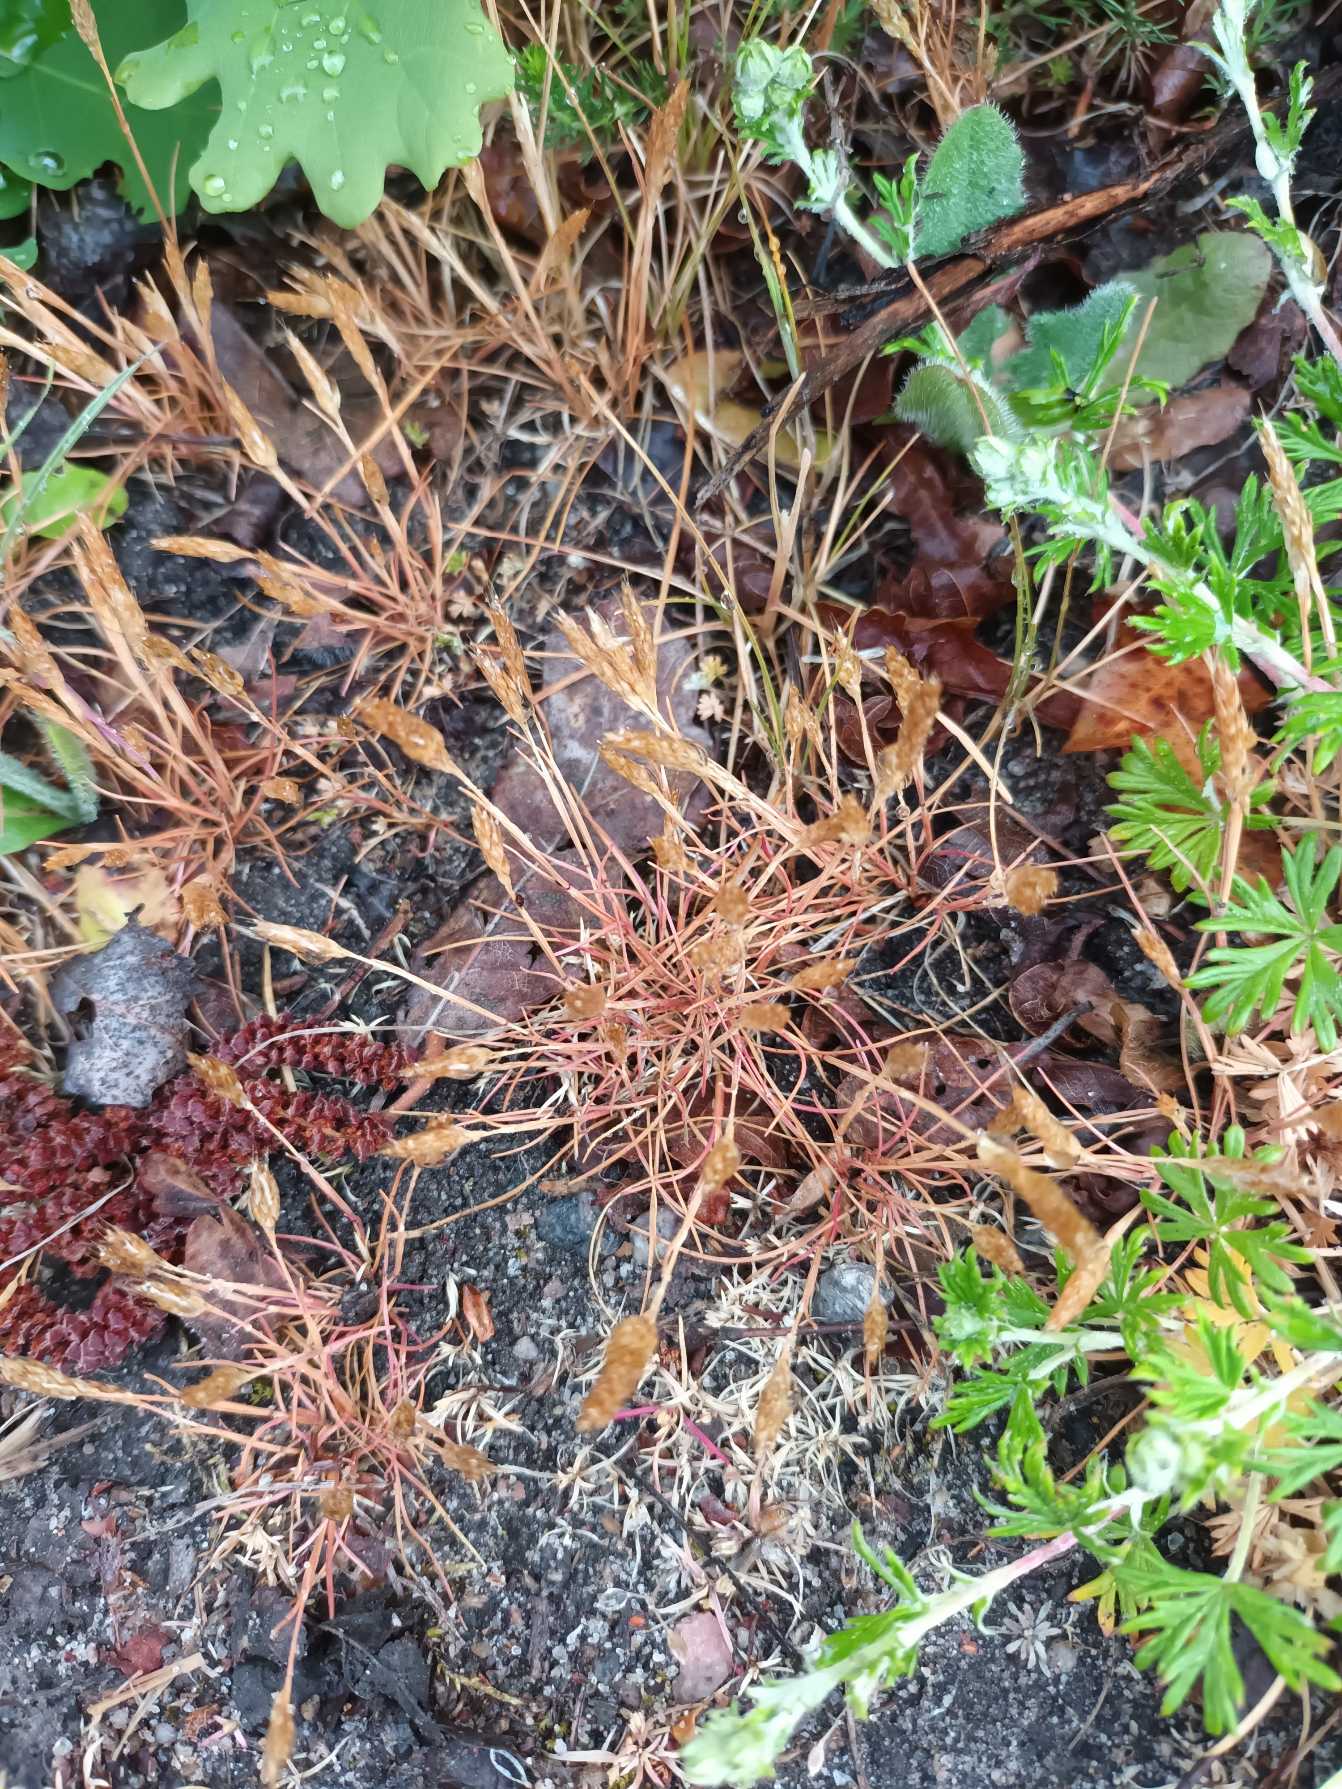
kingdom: Plantae
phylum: Tracheophyta
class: Liliopsida
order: Poales
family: Poaceae
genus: Aira
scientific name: Aira praecox
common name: Tidlig dværgbunke
